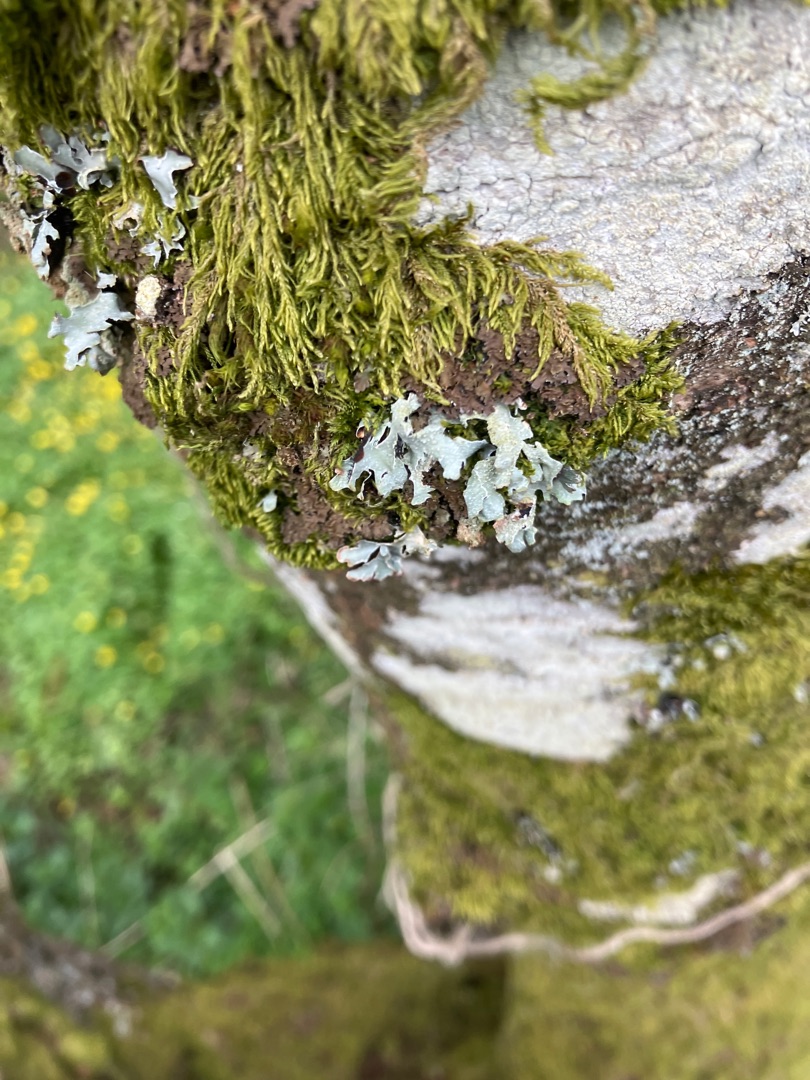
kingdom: Fungi
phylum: Ascomycota
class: Lecanoromycetes
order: Lecanorales
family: Parmeliaceae
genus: Parmelia
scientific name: Parmelia sulcata
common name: Rynket skållav
